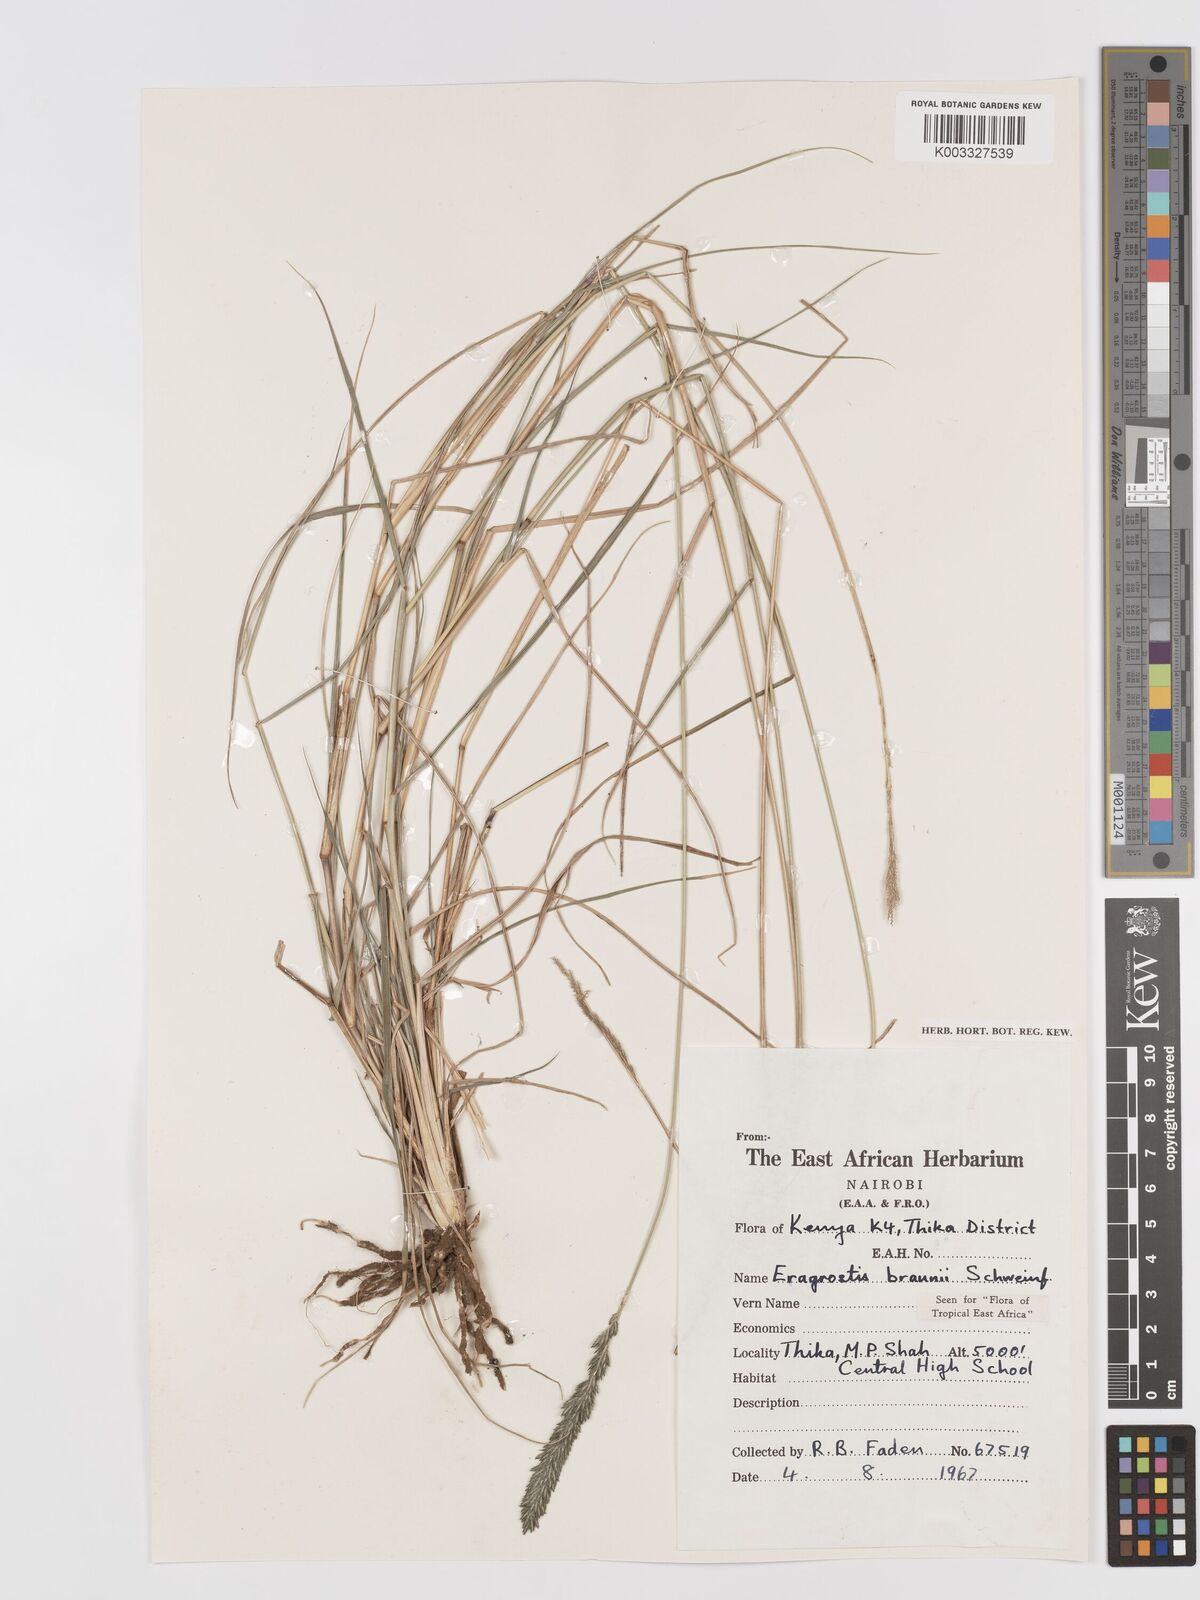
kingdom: Plantae
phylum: Tracheophyta
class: Liliopsida
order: Poales
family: Poaceae
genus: Eragrostis
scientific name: Eragrostis braunii
